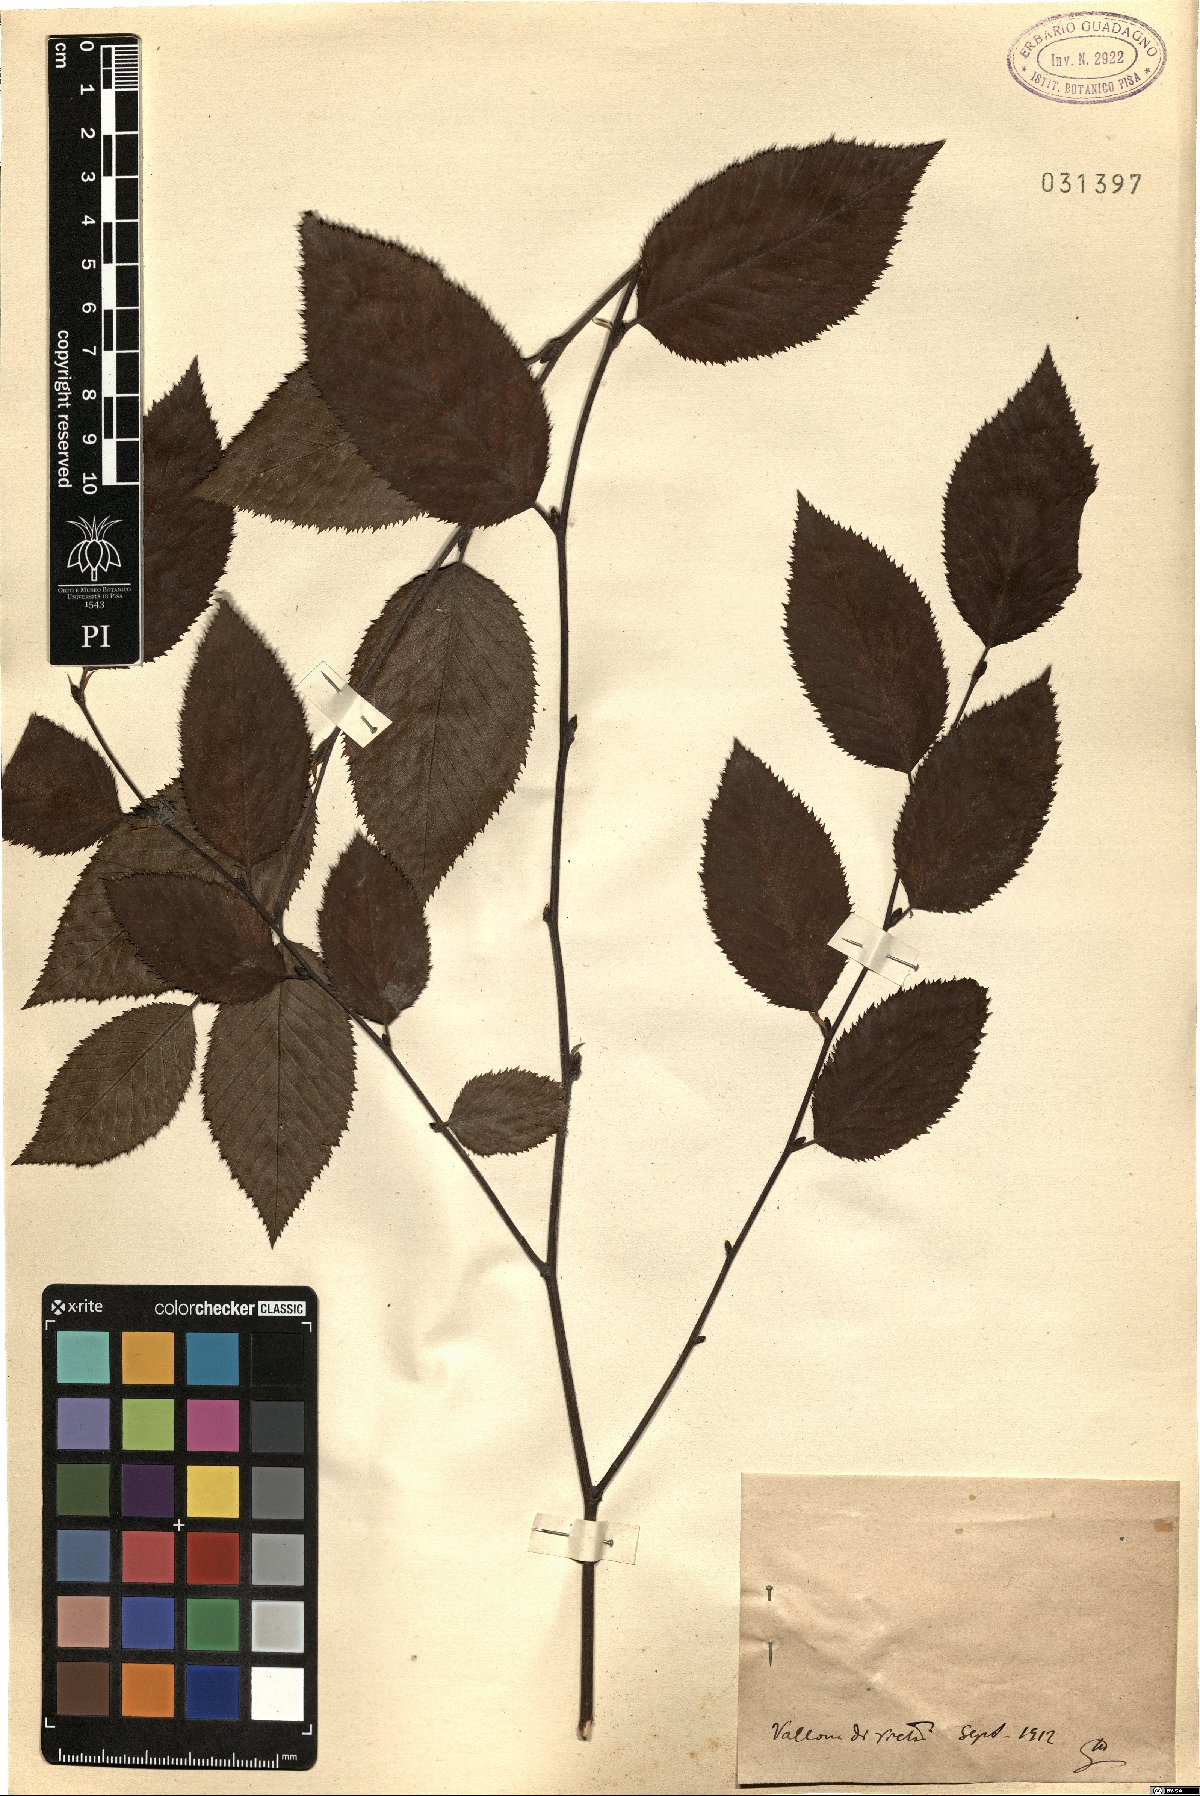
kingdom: Plantae
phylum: Tracheophyta
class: Magnoliopsida
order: Fagales
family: Betulaceae
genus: Ostrya
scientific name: Ostrya
